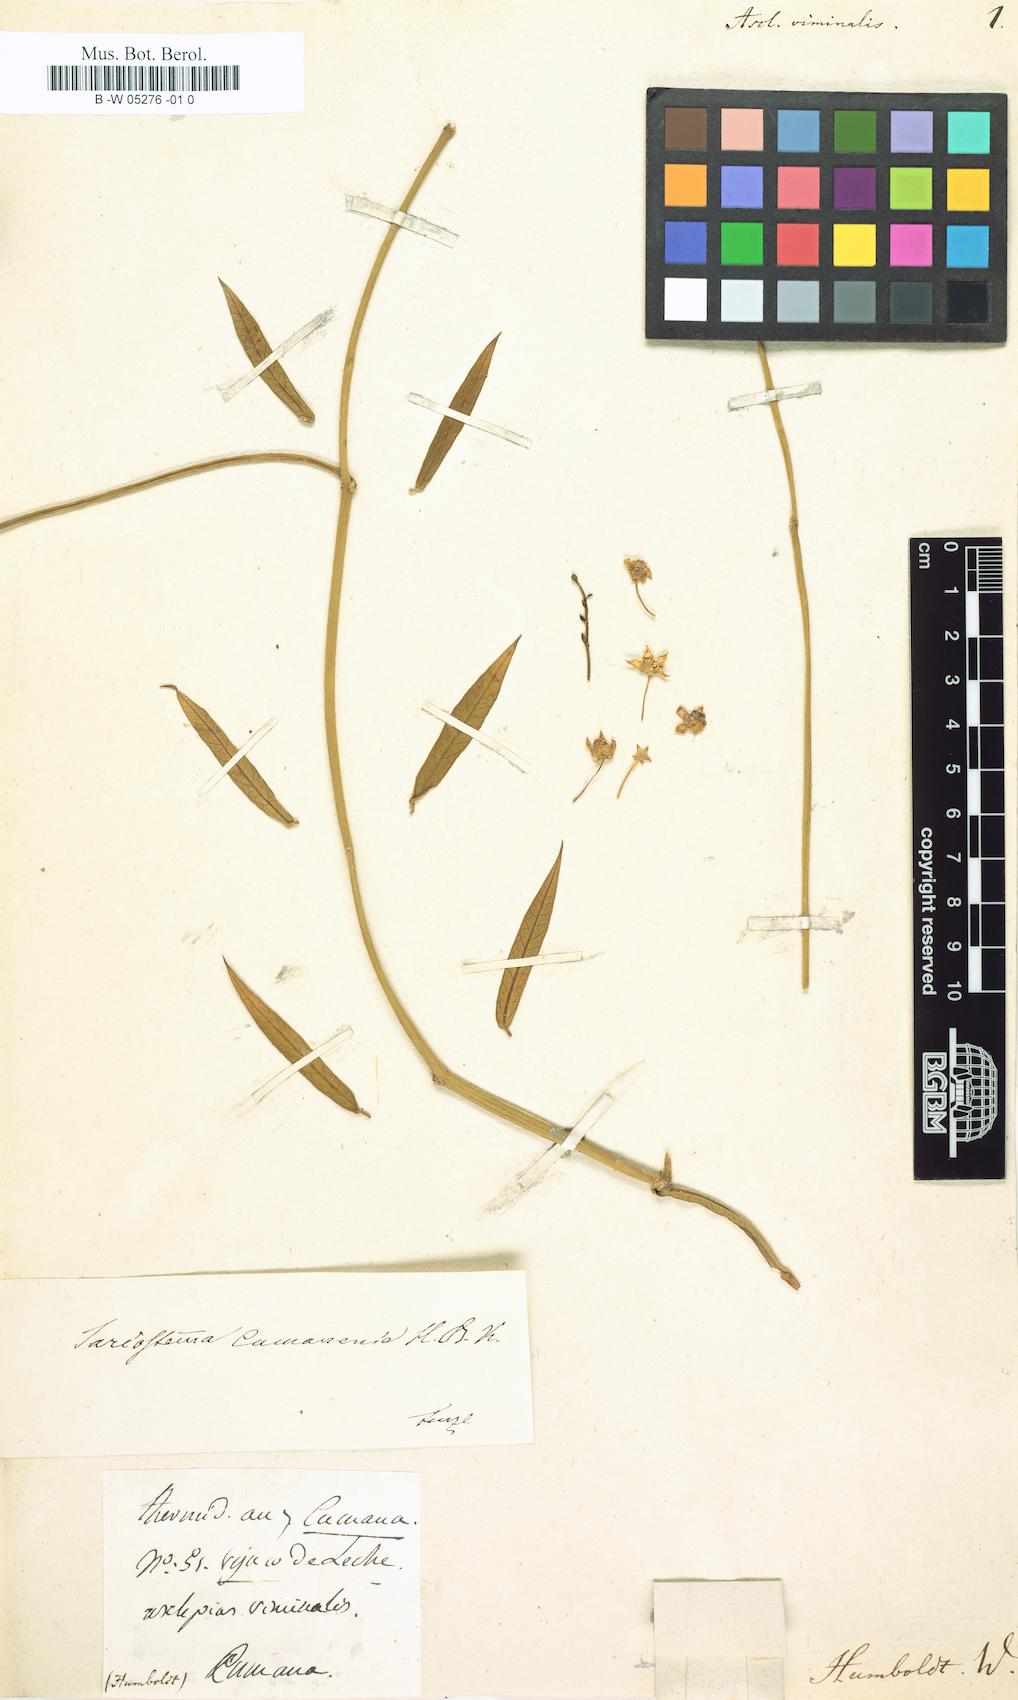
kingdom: Plantae
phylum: Tracheophyta
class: Magnoliopsida
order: Gentianales
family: Apocynaceae
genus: Cynanchum
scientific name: Cynanchum viminale
